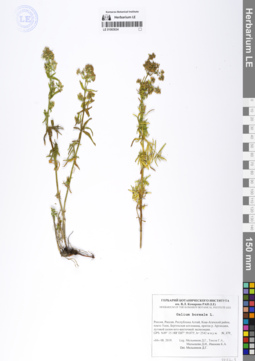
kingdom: Plantae
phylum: Tracheophyta
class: Magnoliopsida
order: Gentianales
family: Rubiaceae
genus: Galium
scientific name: Galium boreale
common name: Northern bedstraw
